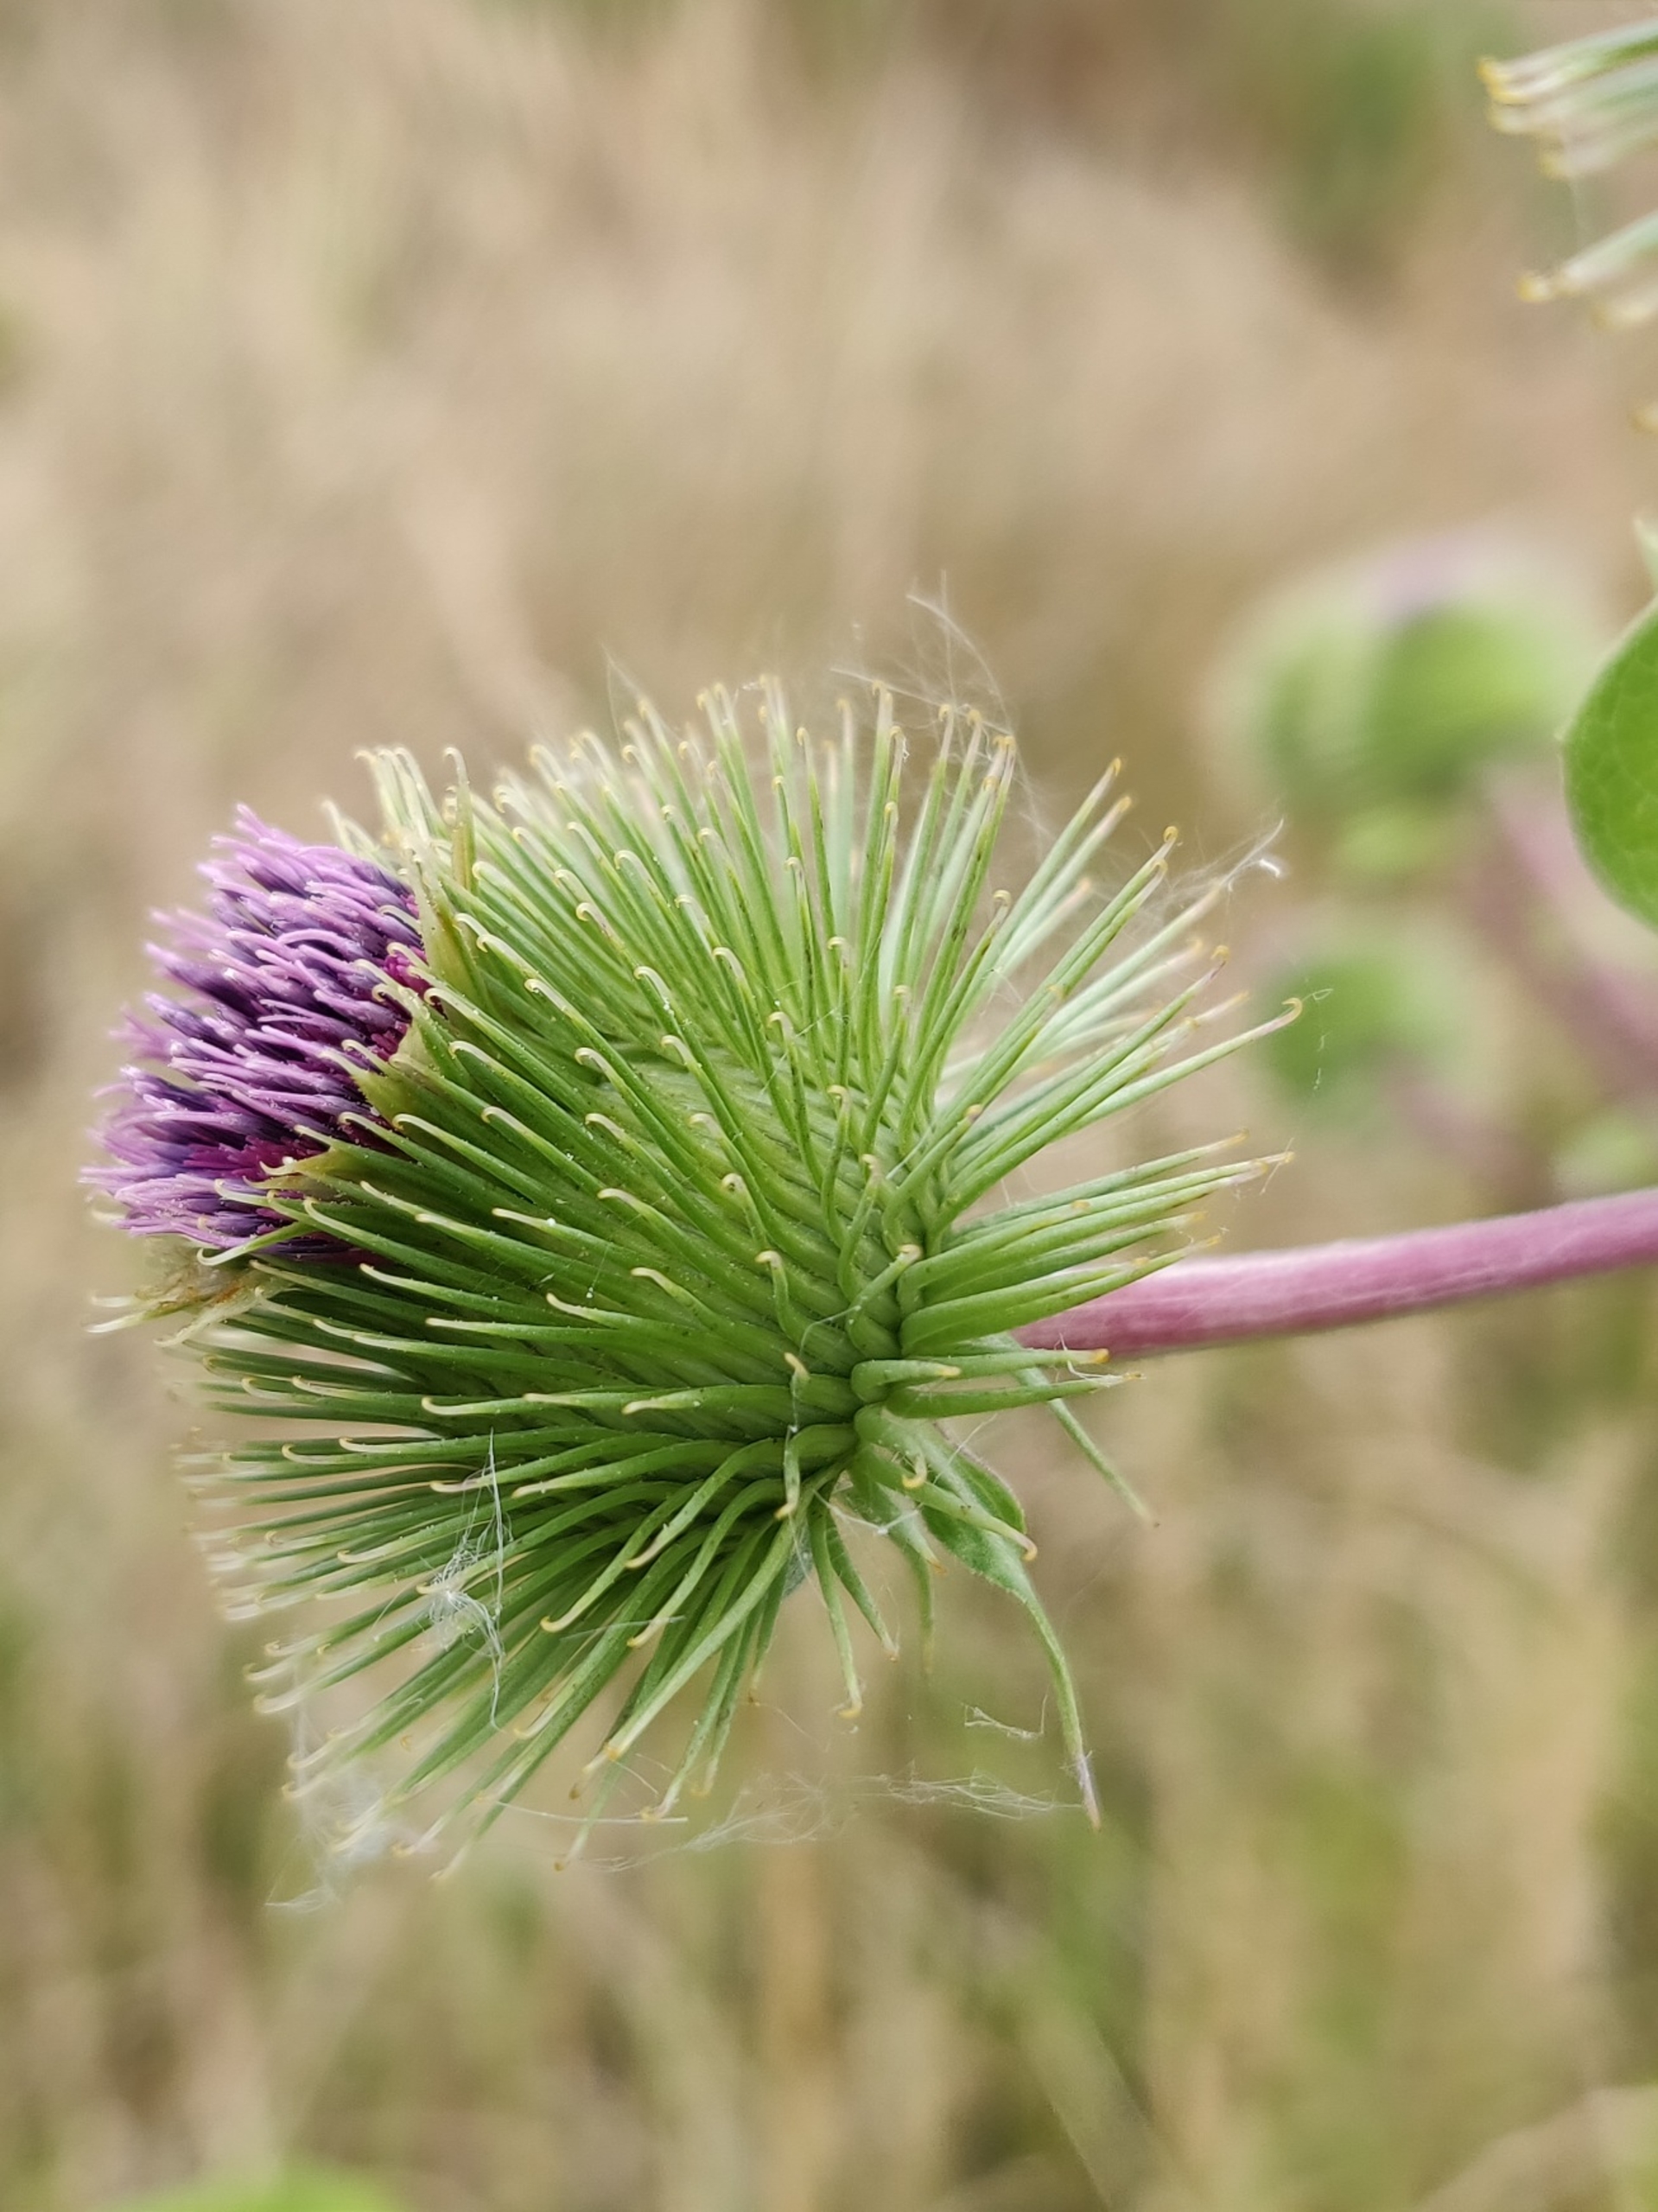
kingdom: Plantae
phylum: Tracheophyta
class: Magnoliopsida
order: Asterales
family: Asteraceae
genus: Arctium
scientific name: Arctium lappa
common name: Glat burre
